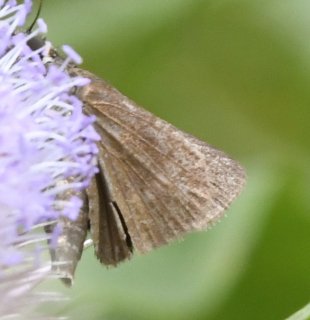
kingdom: Animalia
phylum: Arthropoda
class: Insecta
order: Lepidoptera
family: Hesperiidae
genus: Euphyes
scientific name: Euphyes vestris
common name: Dun Skipper
